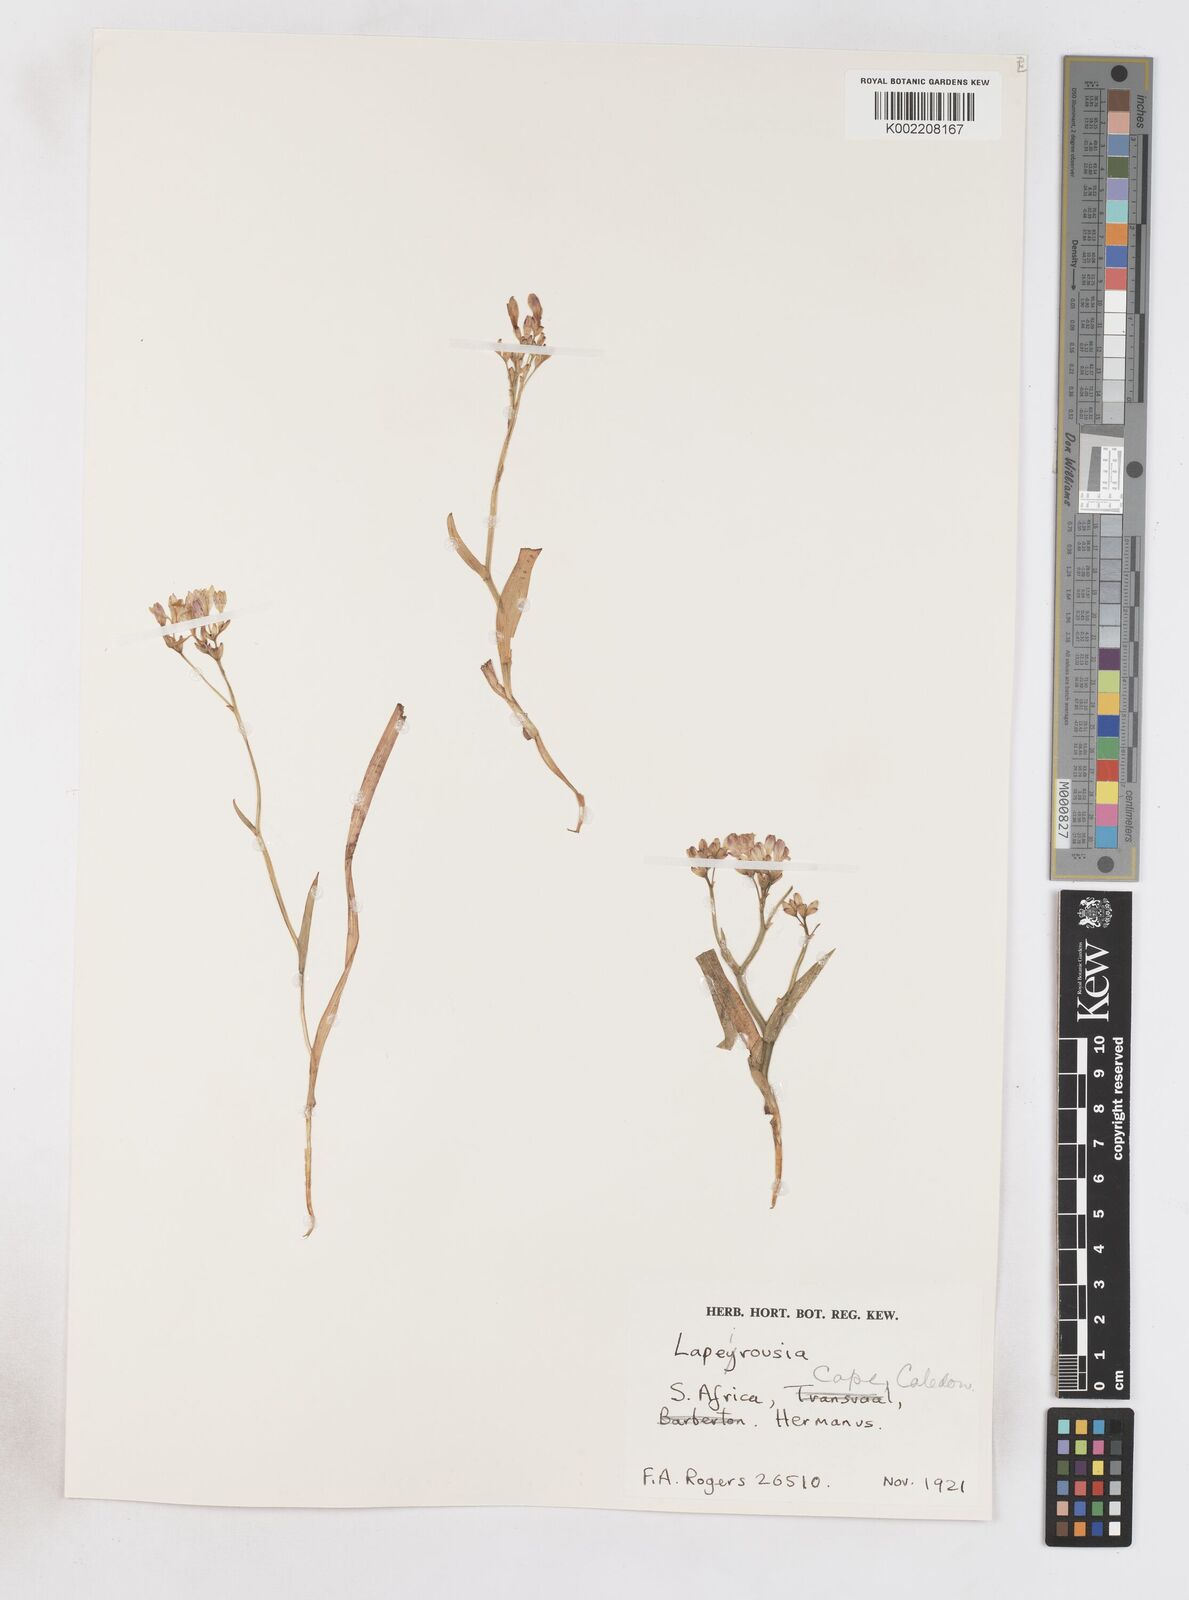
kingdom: Plantae
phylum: Tracheophyta
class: Liliopsida
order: Asparagales
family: Iridaceae
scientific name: Iridaceae
